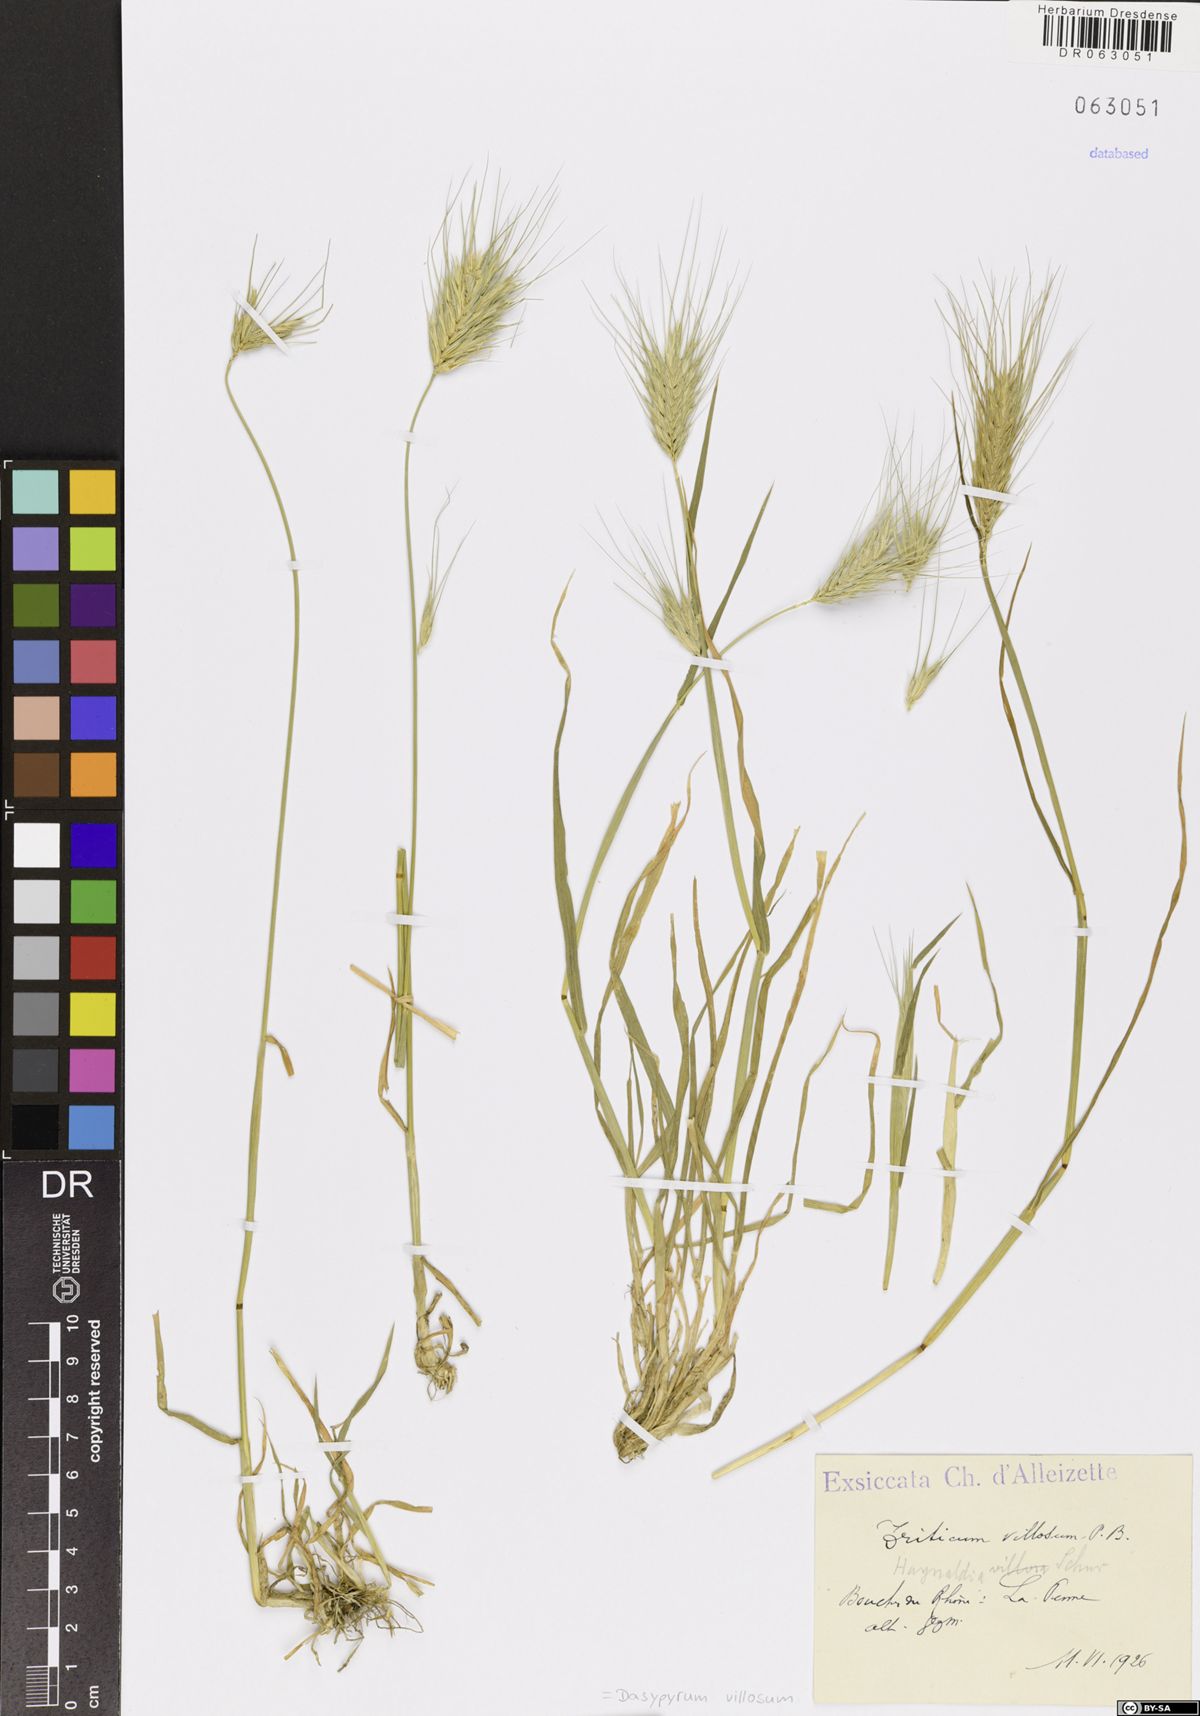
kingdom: Plantae
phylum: Tracheophyta
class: Liliopsida
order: Poales
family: Poaceae
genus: Dasypyrum
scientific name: Dasypyrum villosum
